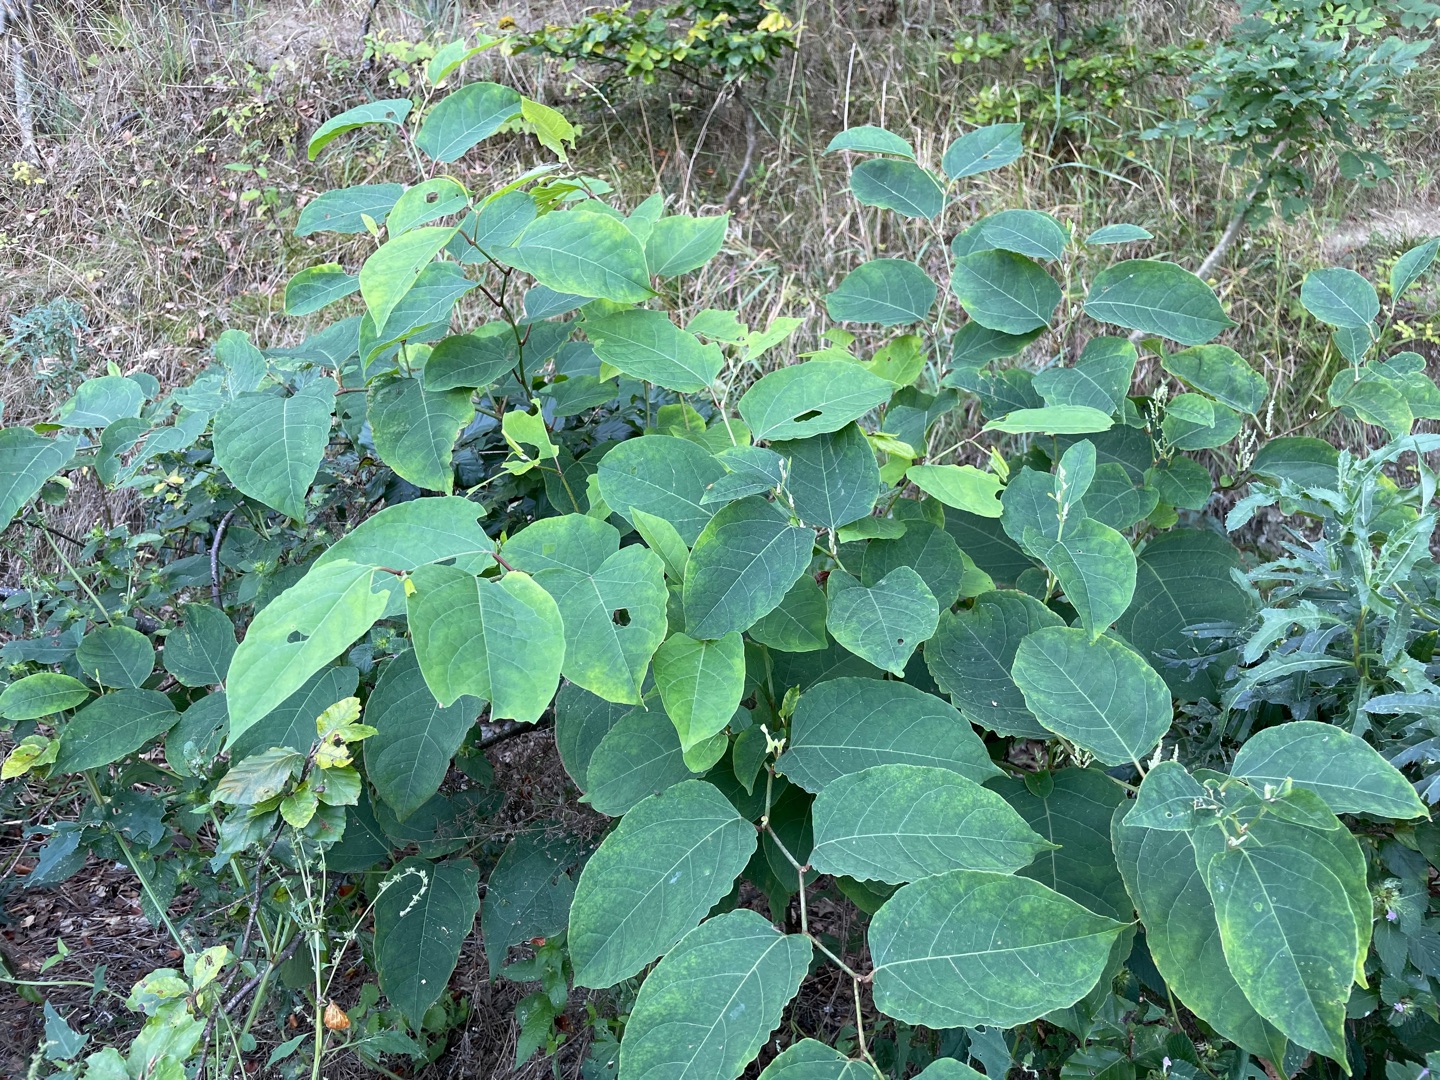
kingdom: Plantae
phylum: Tracheophyta
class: Magnoliopsida
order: Caryophyllales
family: Polygonaceae
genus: Reynoutria
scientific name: Reynoutria japonica
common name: Japan-pileurt
